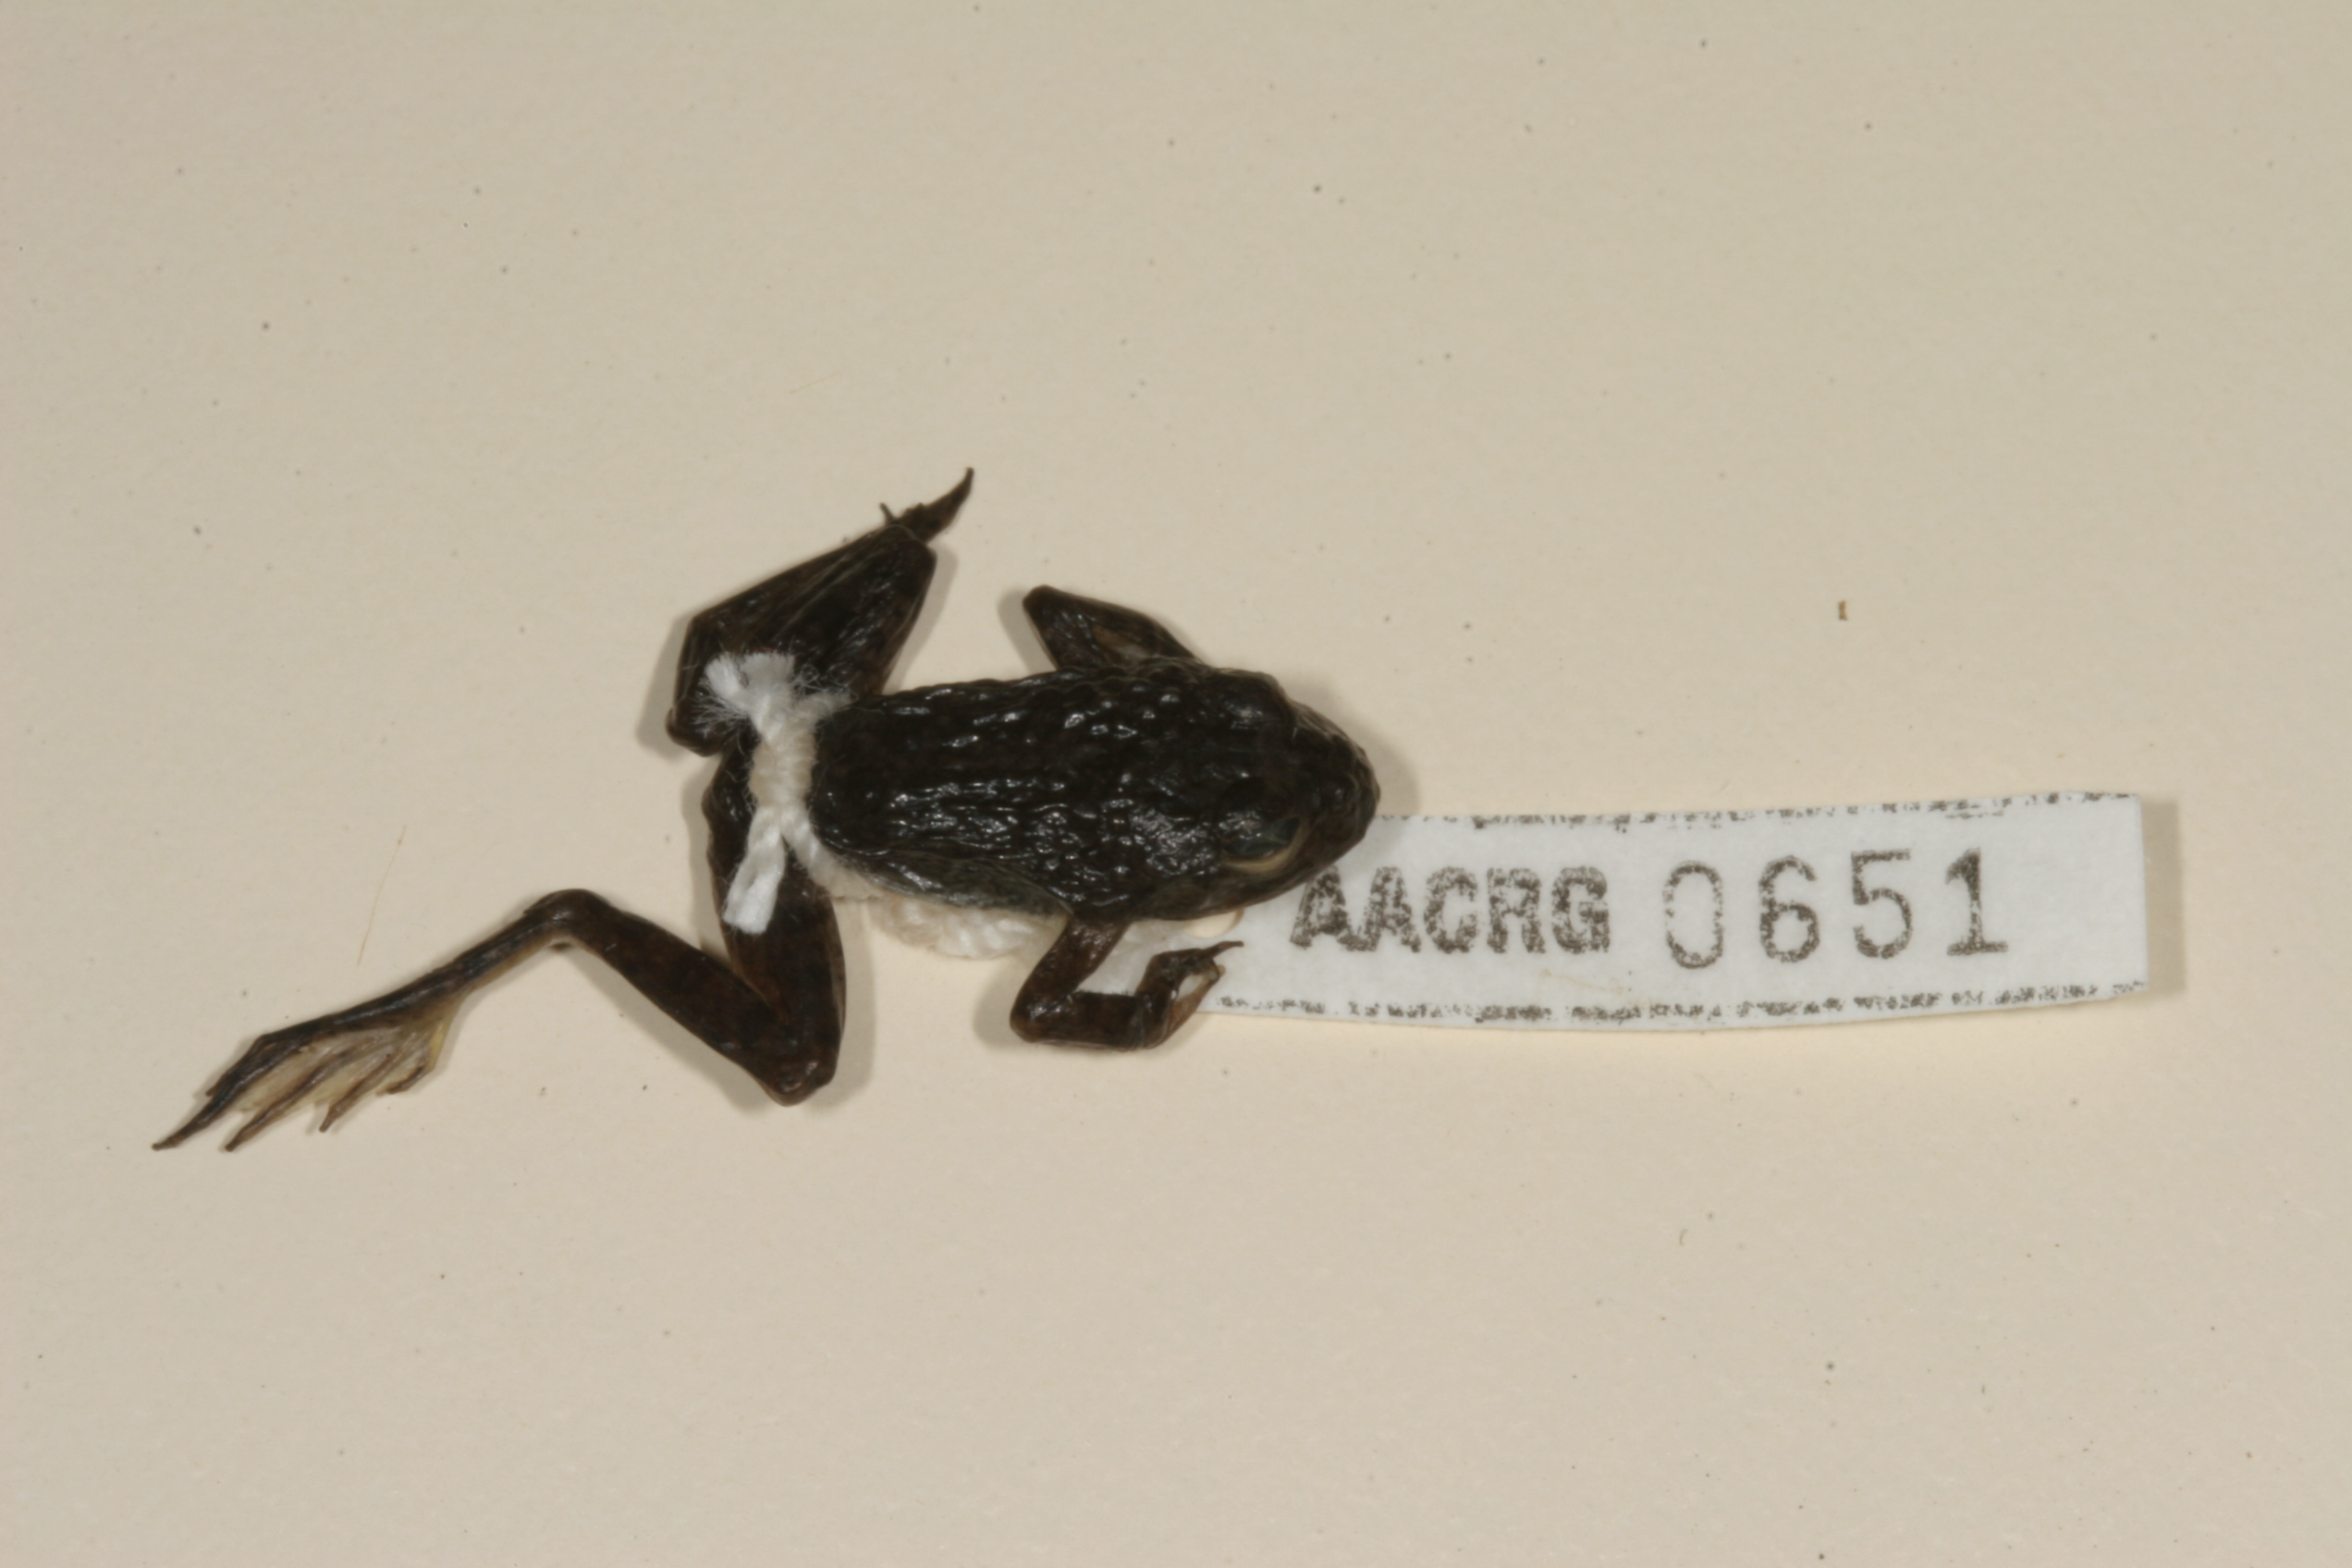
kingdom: Animalia
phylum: Chordata
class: Amphibia
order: Anura
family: Pyxicephalidae
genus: Amietia
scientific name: Amietia vertebralis
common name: Drakensberg stream frog
